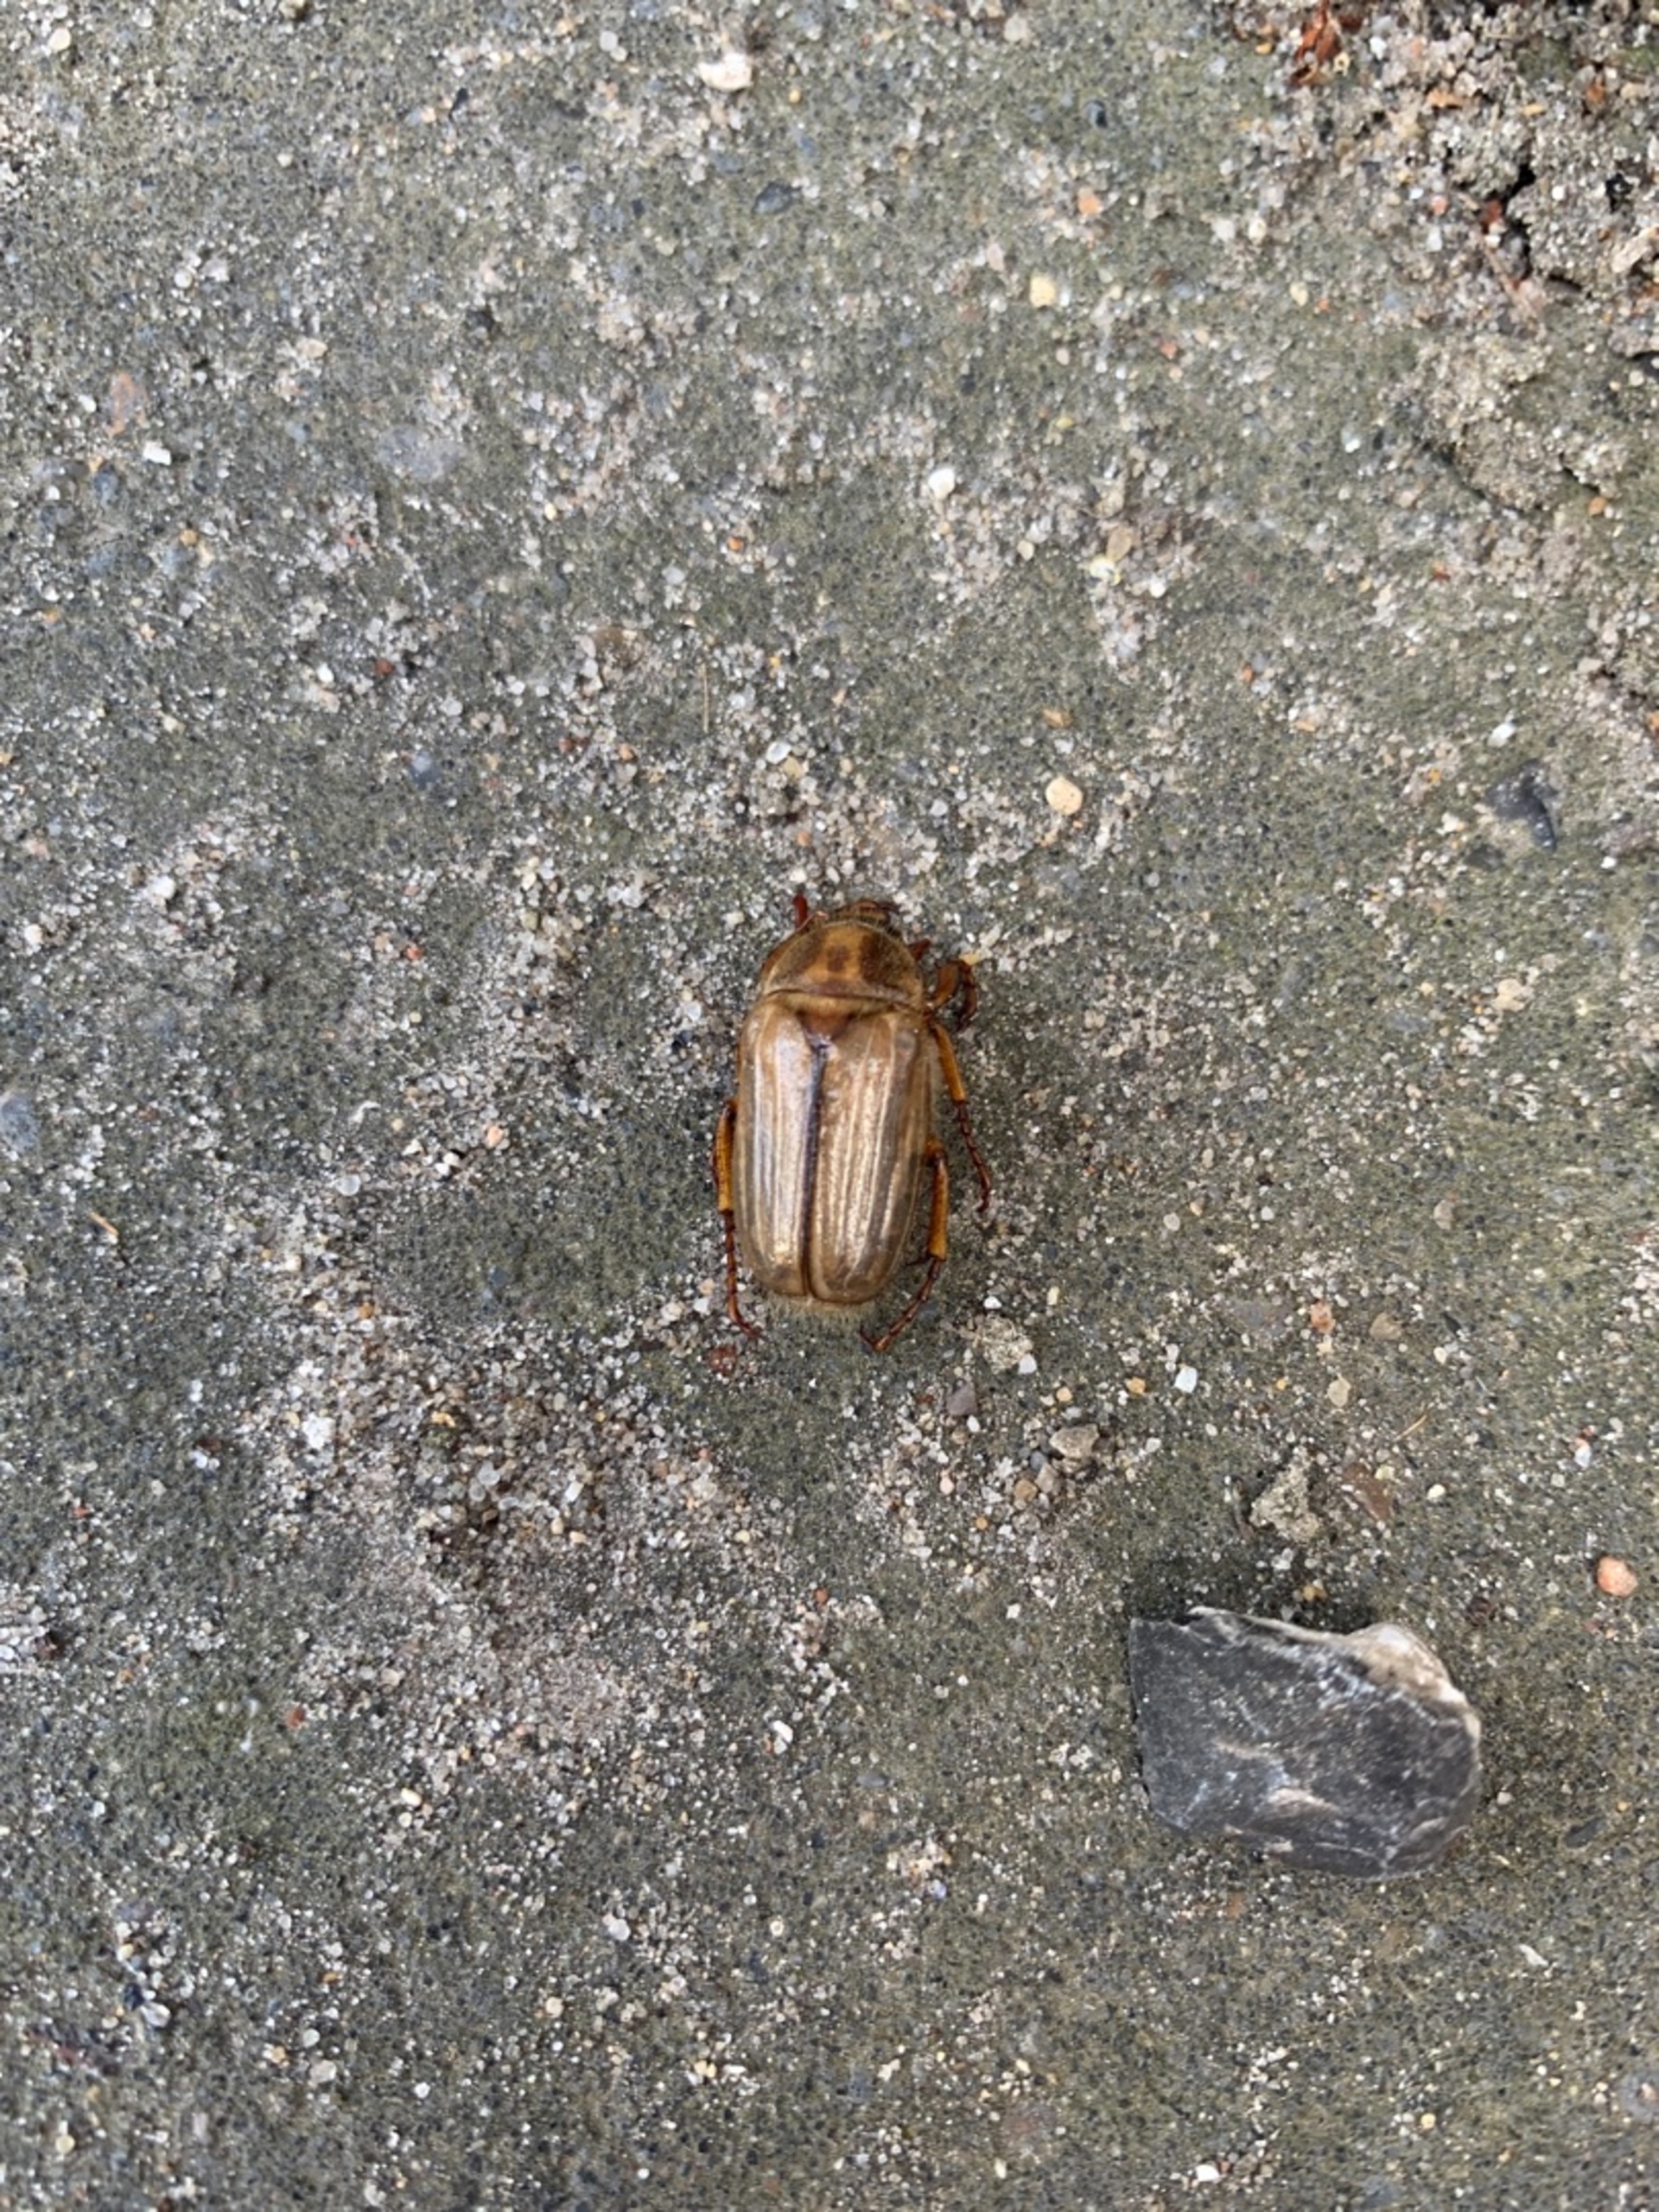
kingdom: Animalia
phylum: Arthropoda
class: Insecta
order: Coleoptera
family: Scarabaeidae
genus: Amphimallon
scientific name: Amphimallon solstitiale
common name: Sankthansoldenborre
